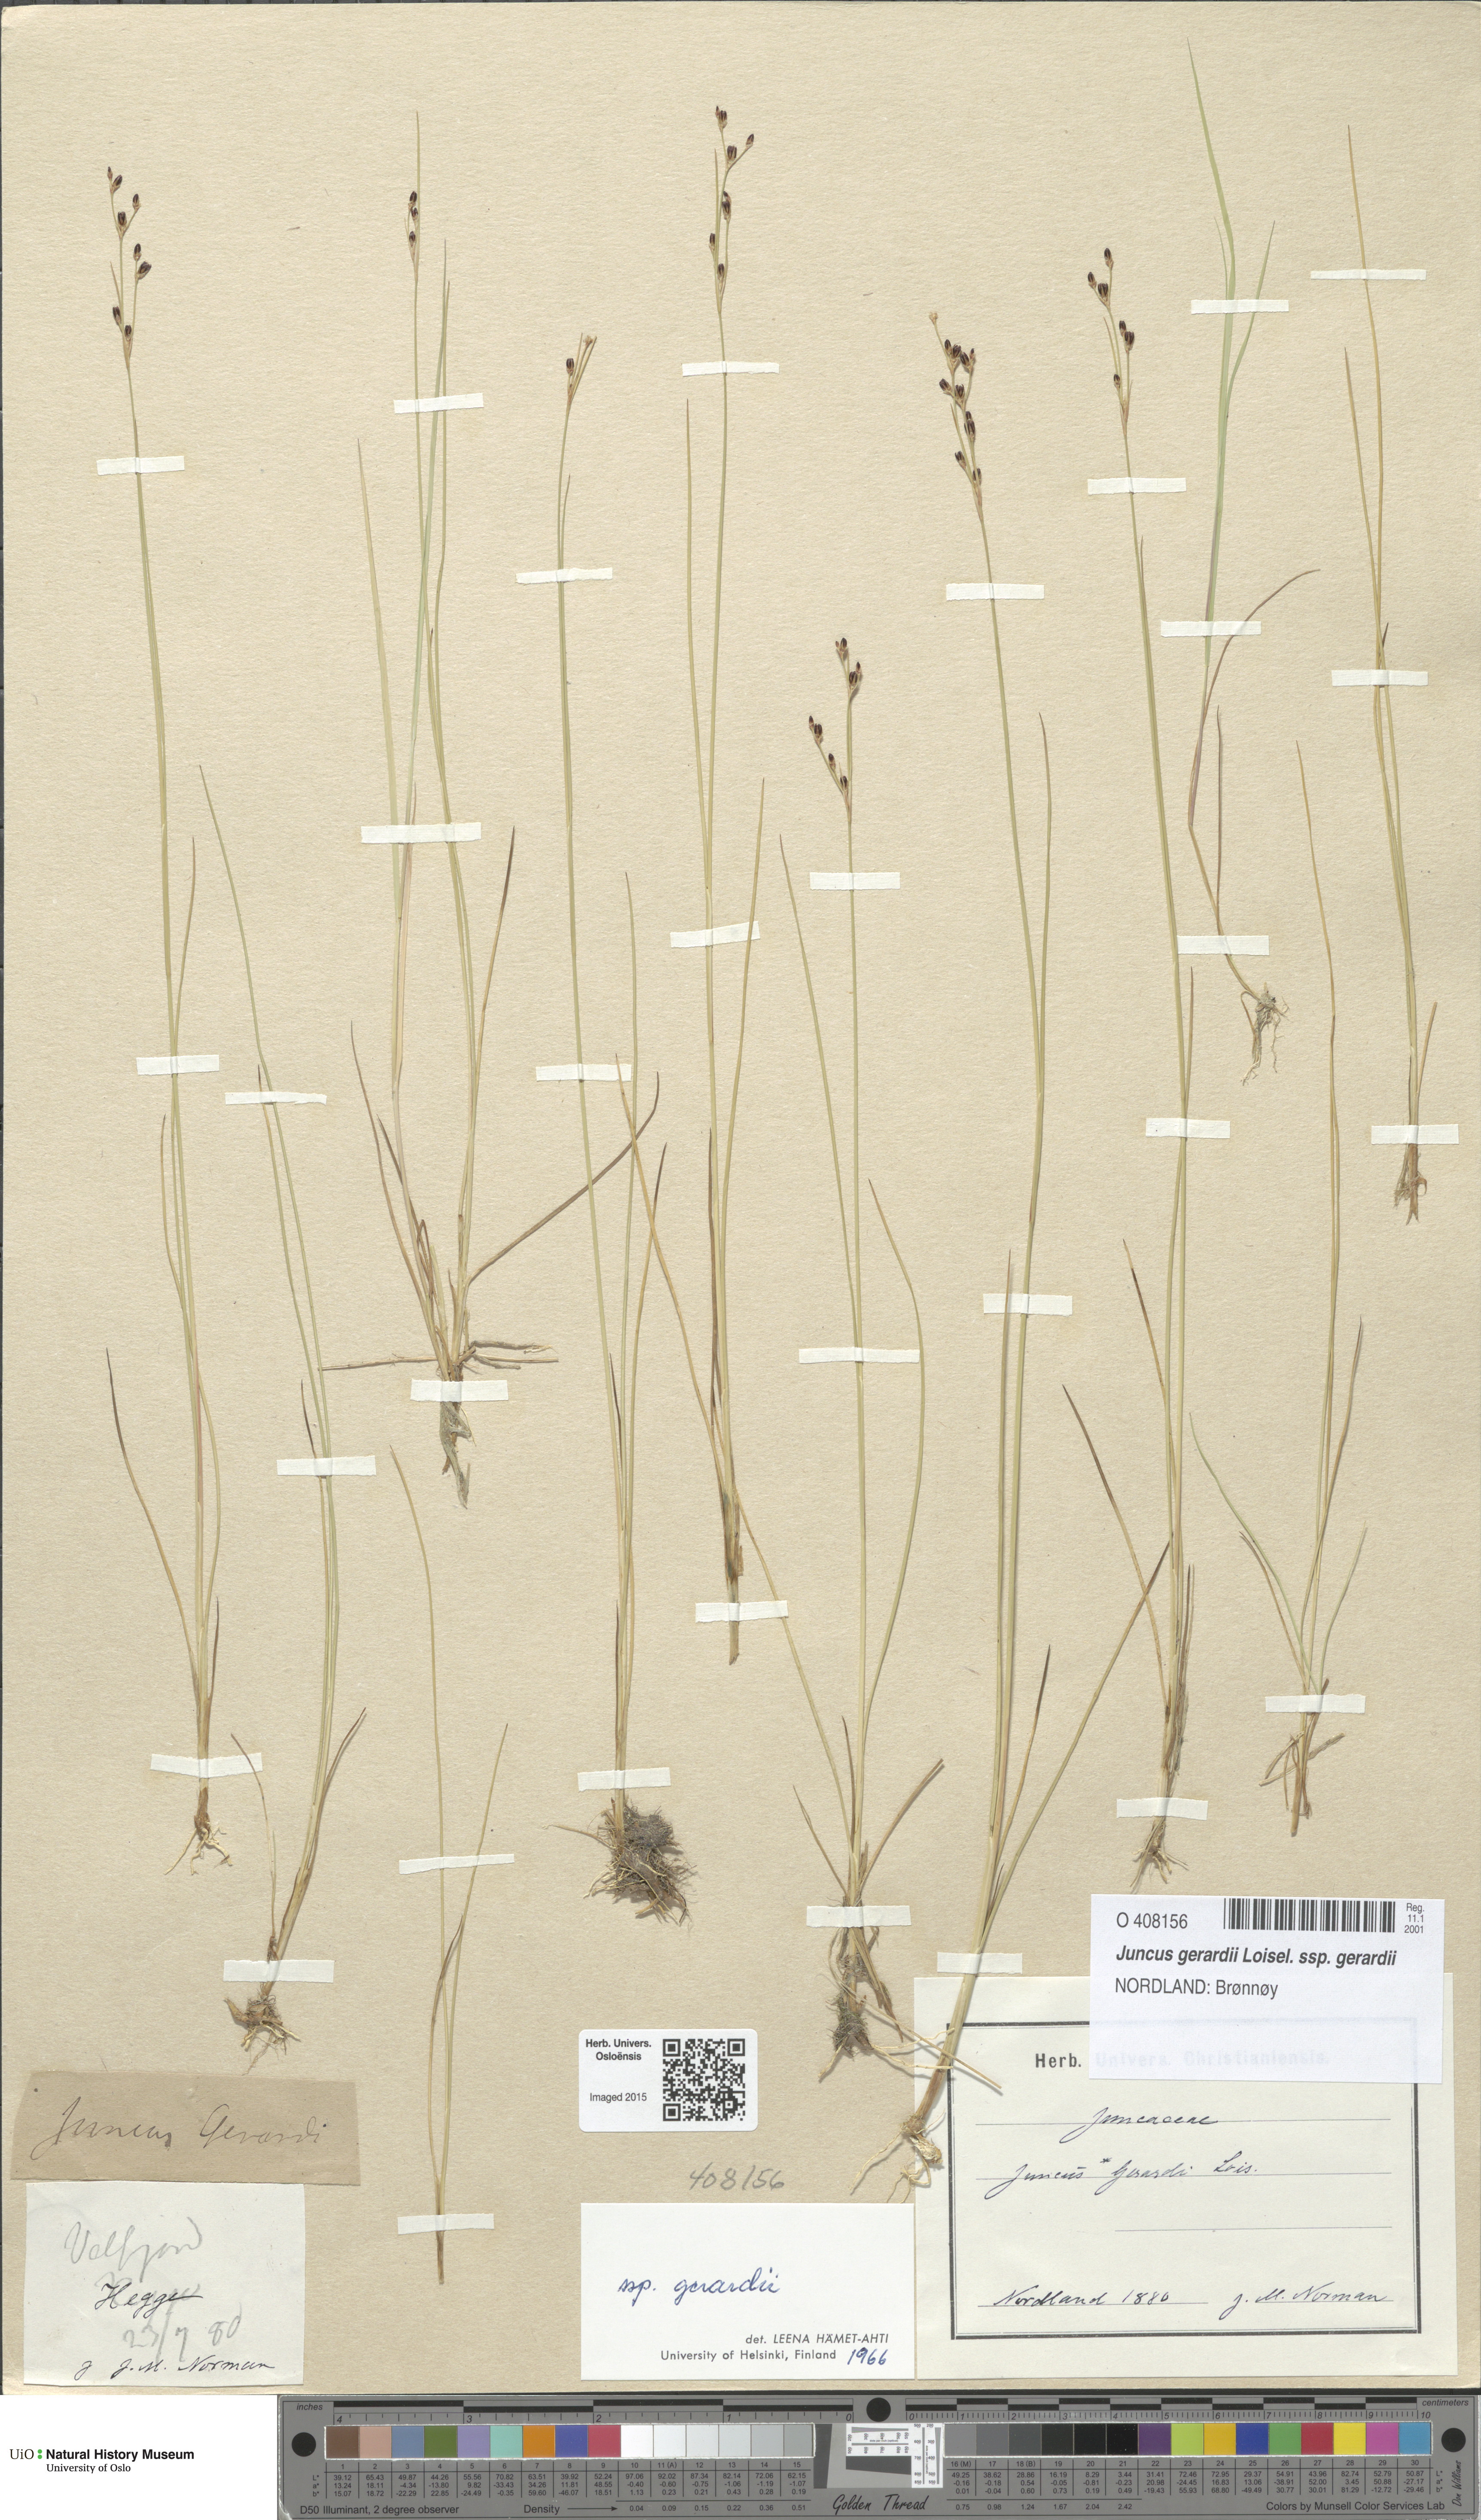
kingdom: Plantae
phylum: Tracheophyta
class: Liliopsida
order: Poales
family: Juncaceae
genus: Juncus
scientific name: Juncus gerardi
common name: Saltmarsh rush
